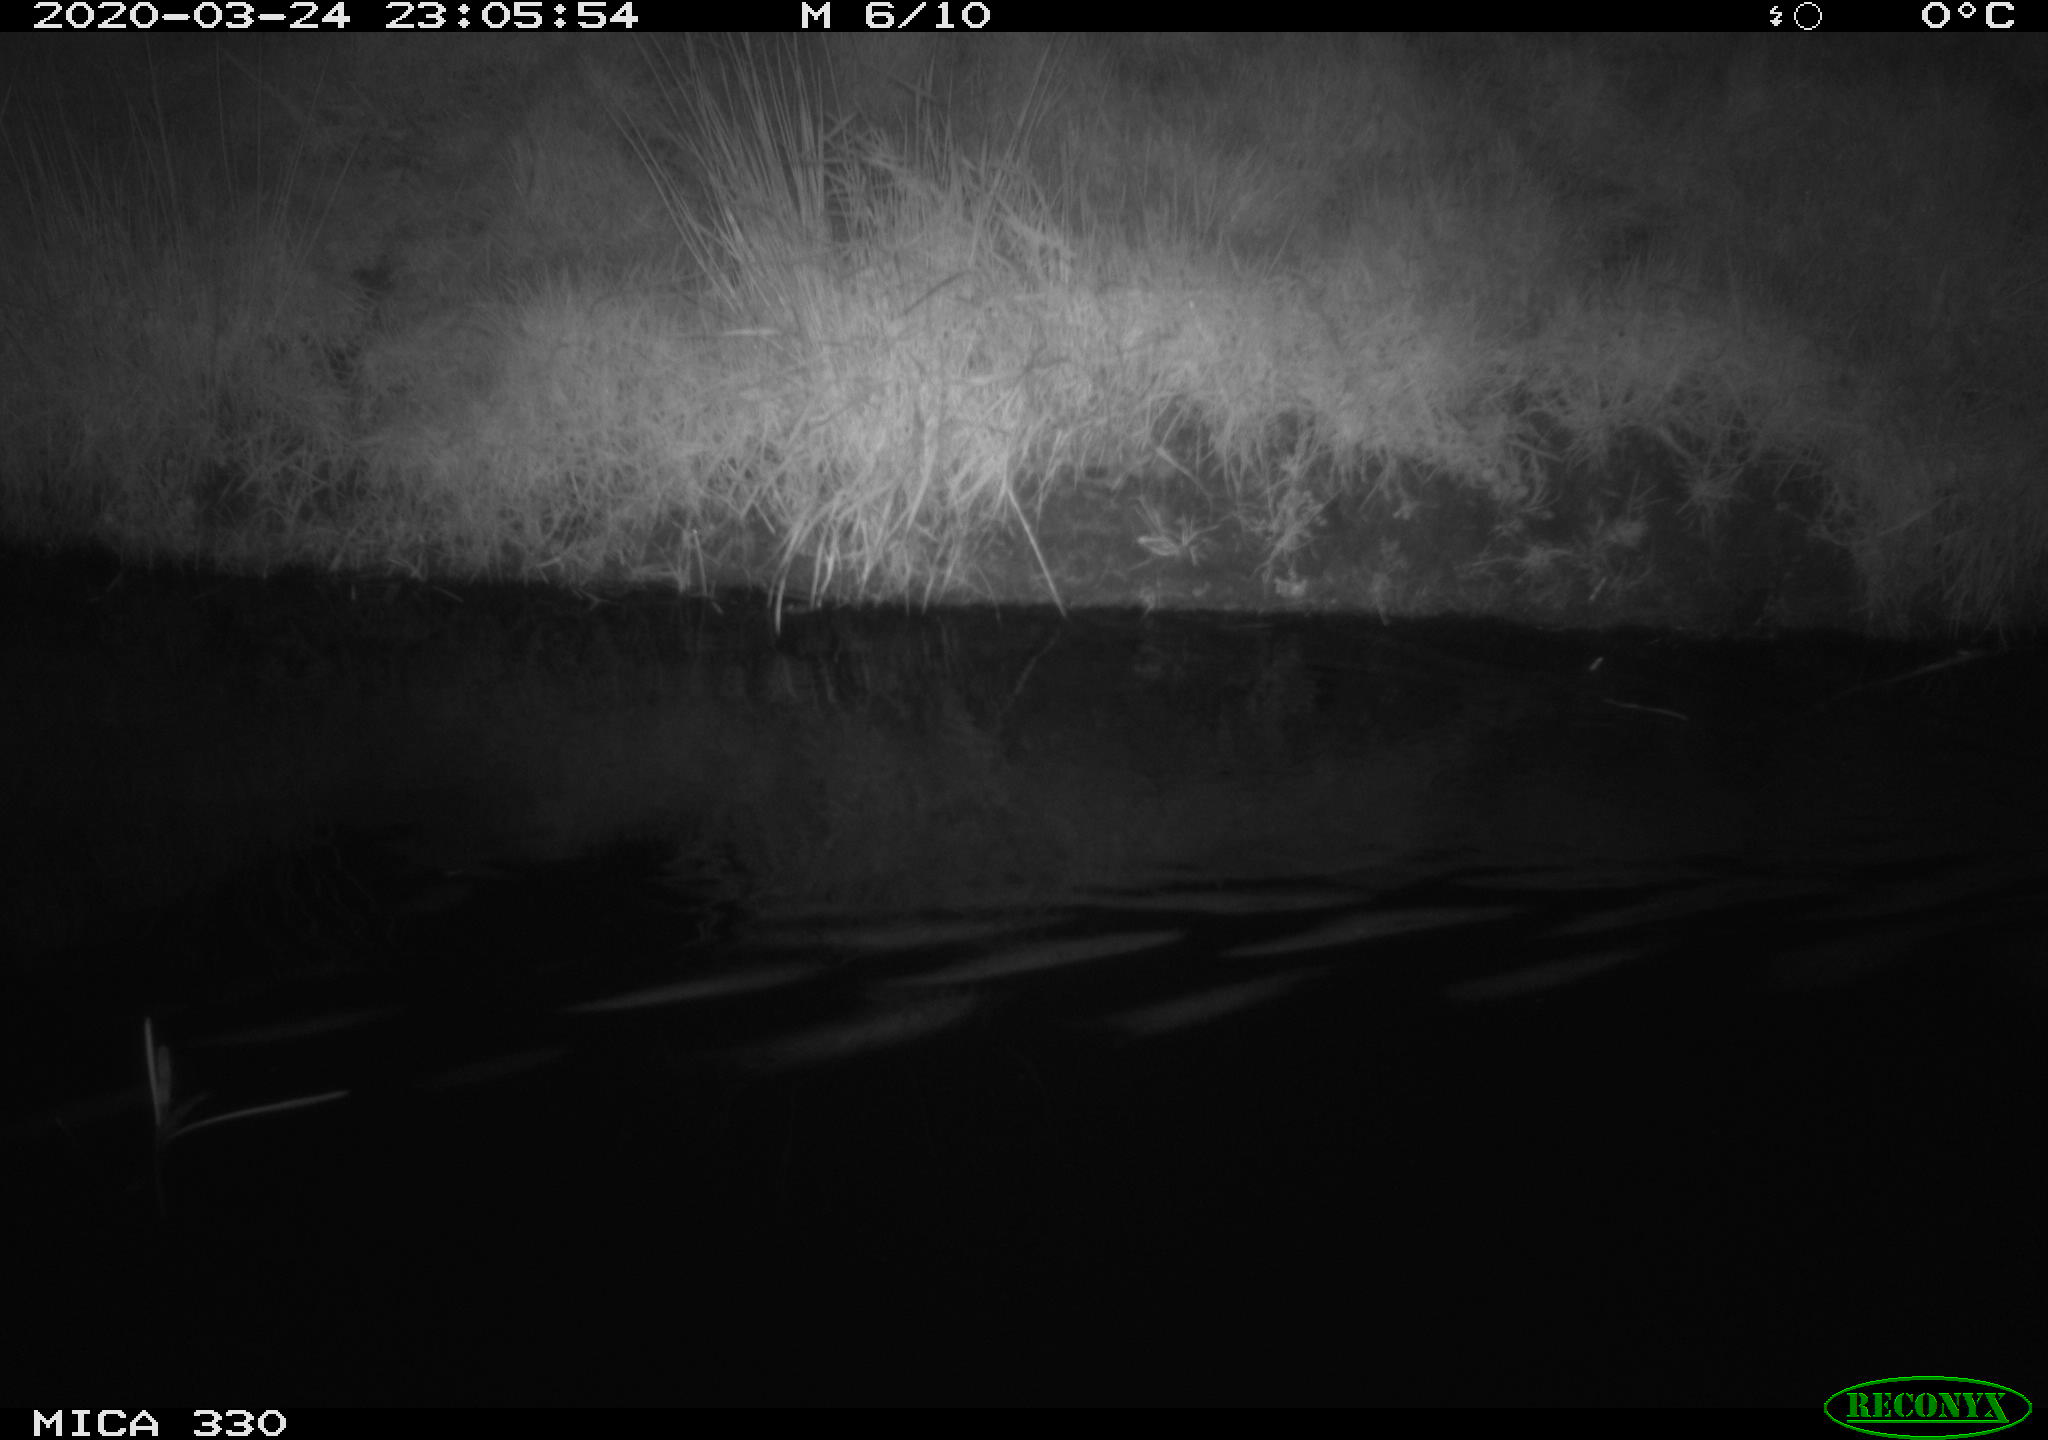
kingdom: Animalia
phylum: Chordata
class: Aves
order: Anseriformes
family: Anatidae
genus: Anas
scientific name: Anas platyrhynchos
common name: Mallard
